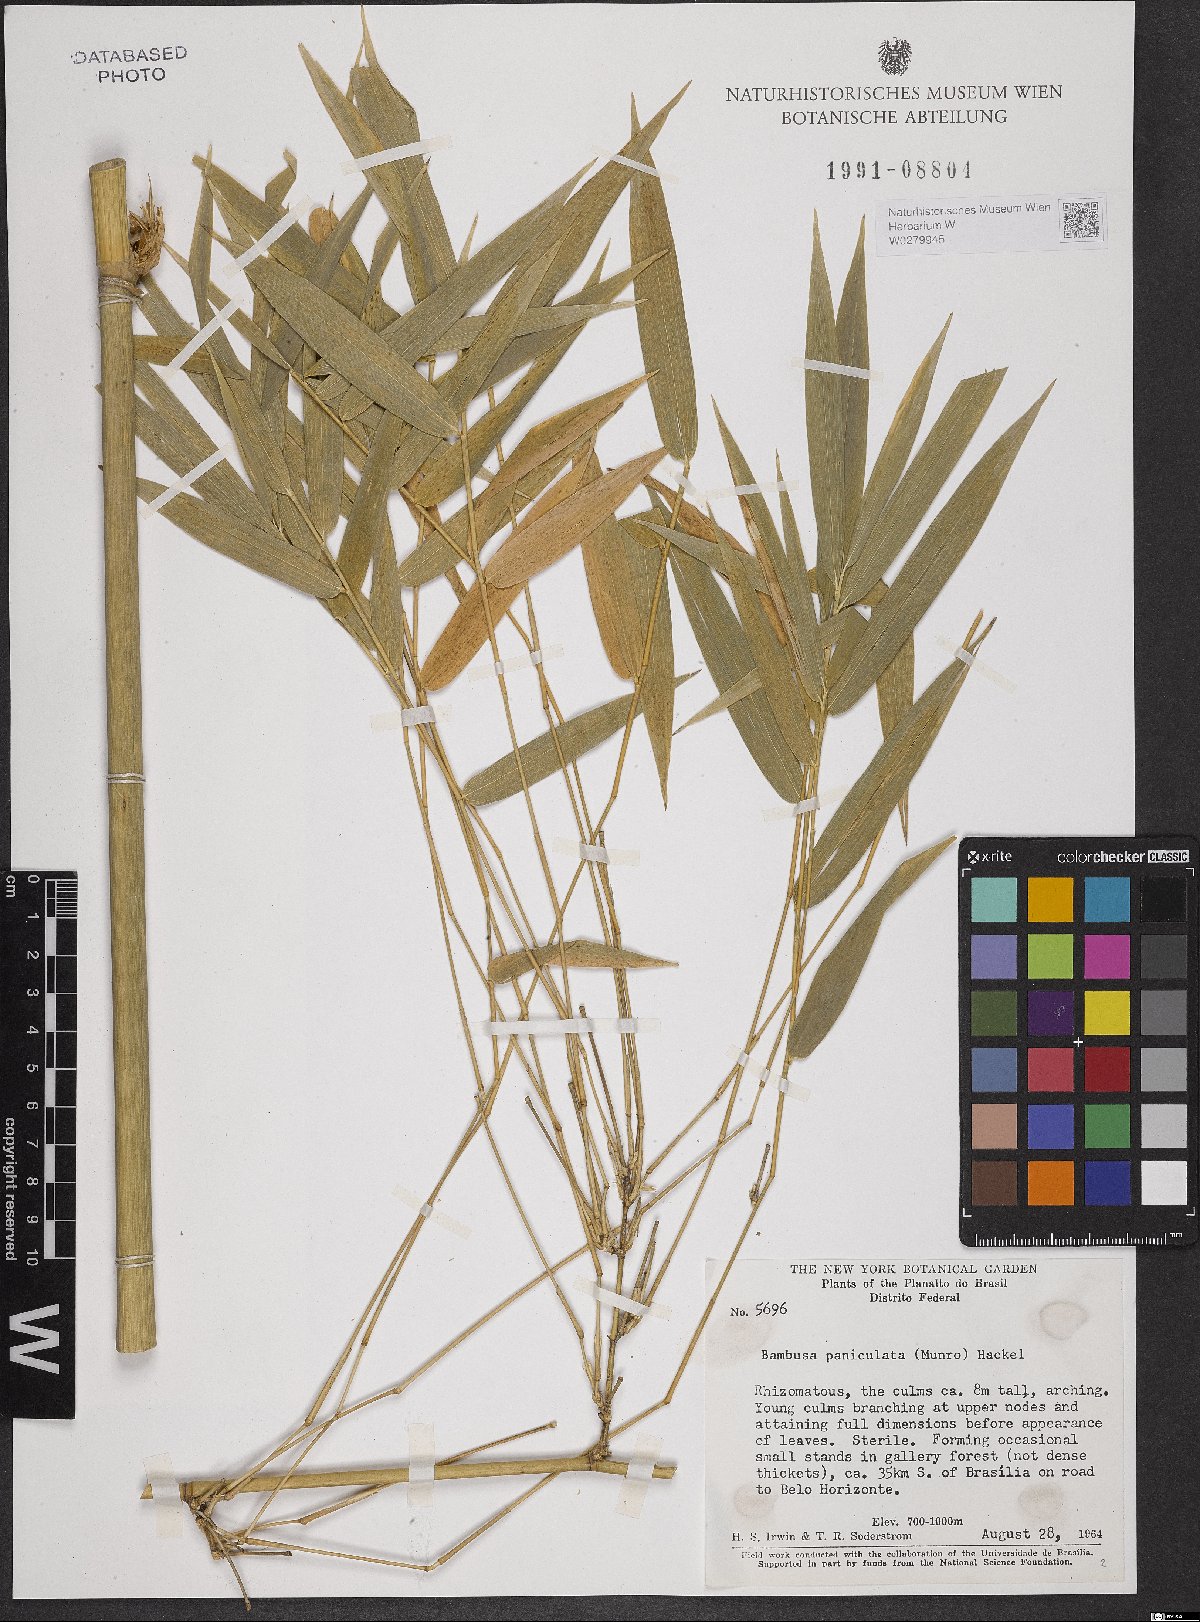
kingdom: Plantae
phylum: Tracheophyta
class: Liliopsida
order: Poales
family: Poaceae
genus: Guadua
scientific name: Guadua paniculata
